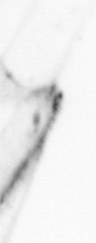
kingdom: Animalia
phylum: Chaetognatha
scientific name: Chaetognatha
